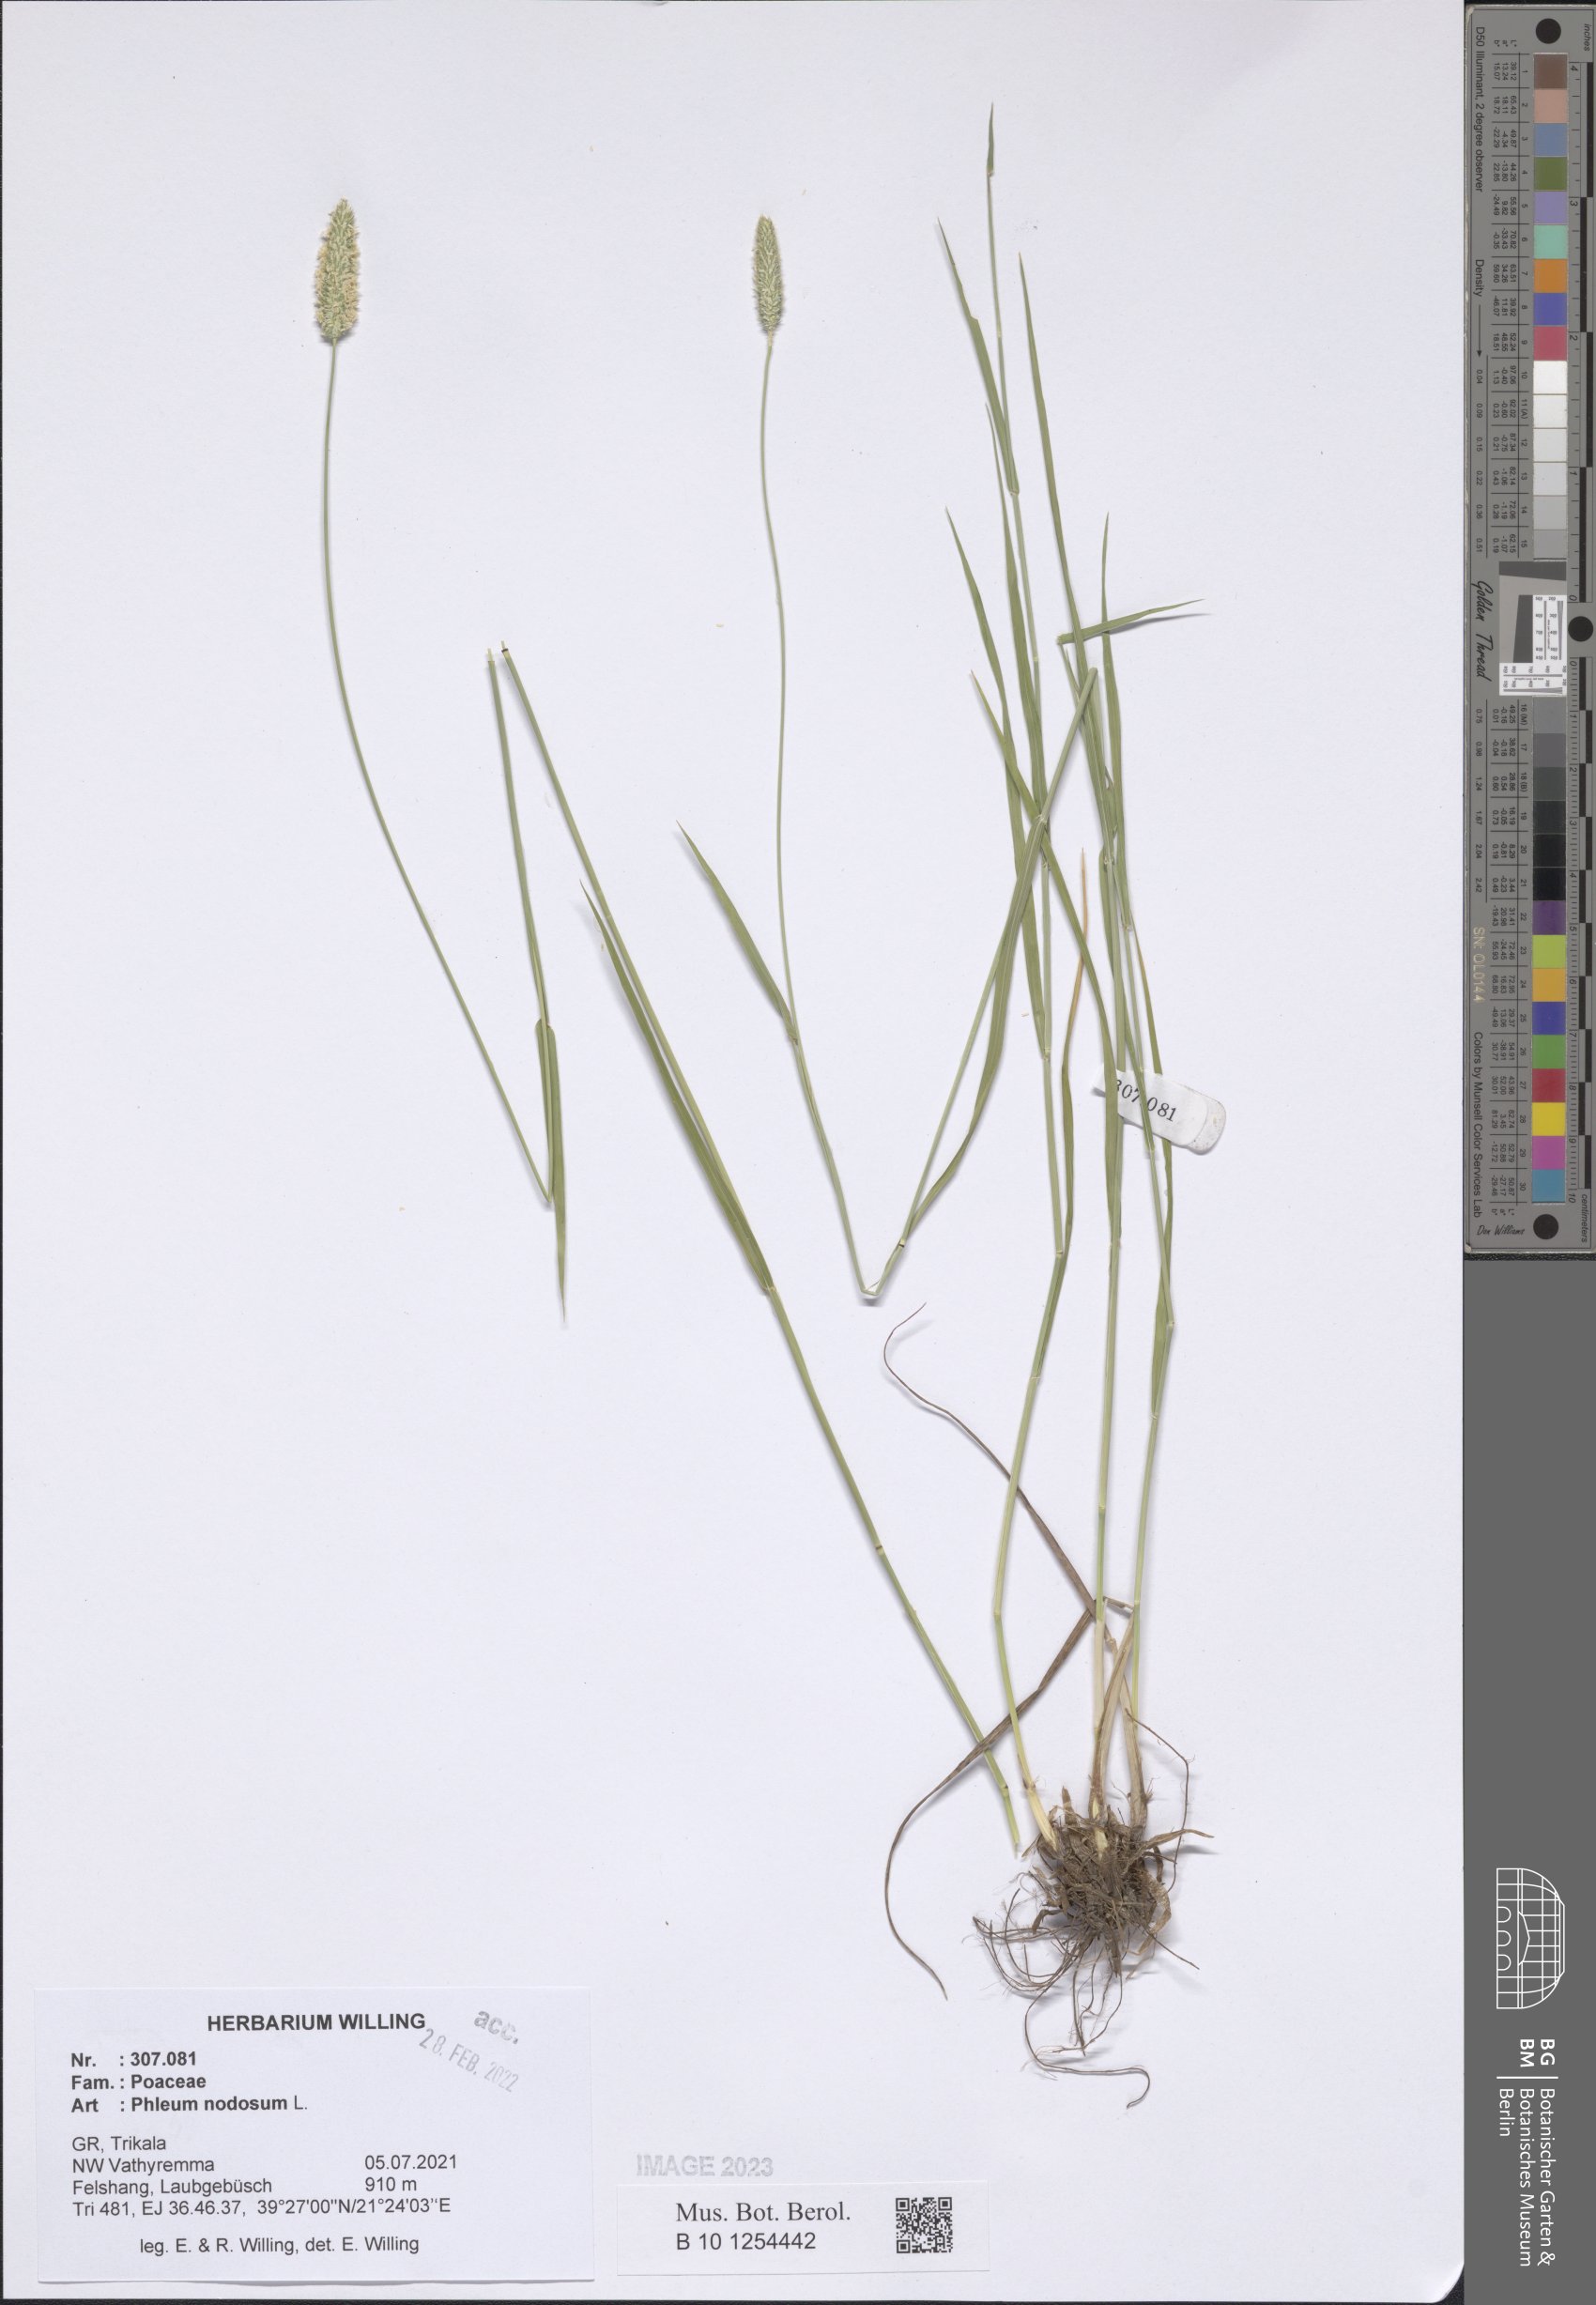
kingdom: Plantae
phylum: Tracheophyta
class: Liliopsida
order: Poales
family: Poaceae
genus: Phleum
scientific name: Phleum pratense
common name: Timothy grass
